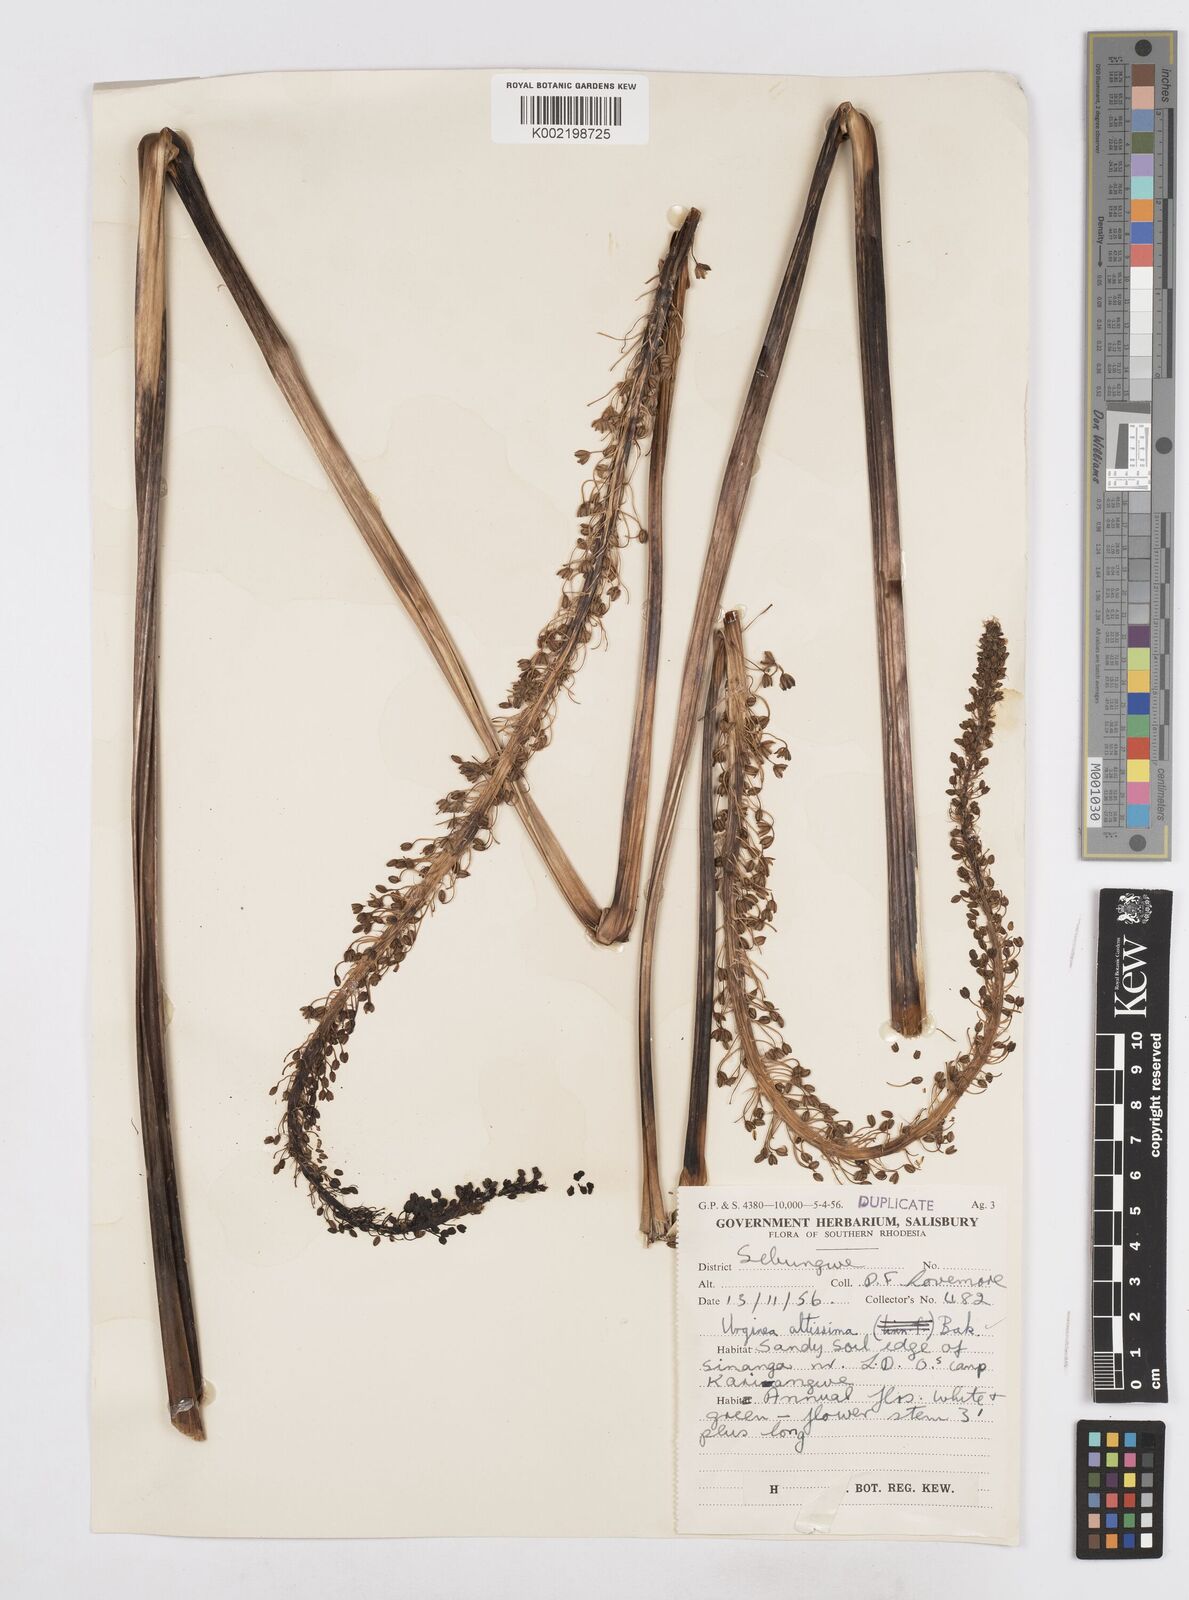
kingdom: Plantae
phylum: Tracheophyta
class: Liliopsida
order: Asparagales
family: Asparagaceae
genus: Drimia
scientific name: Drimia
